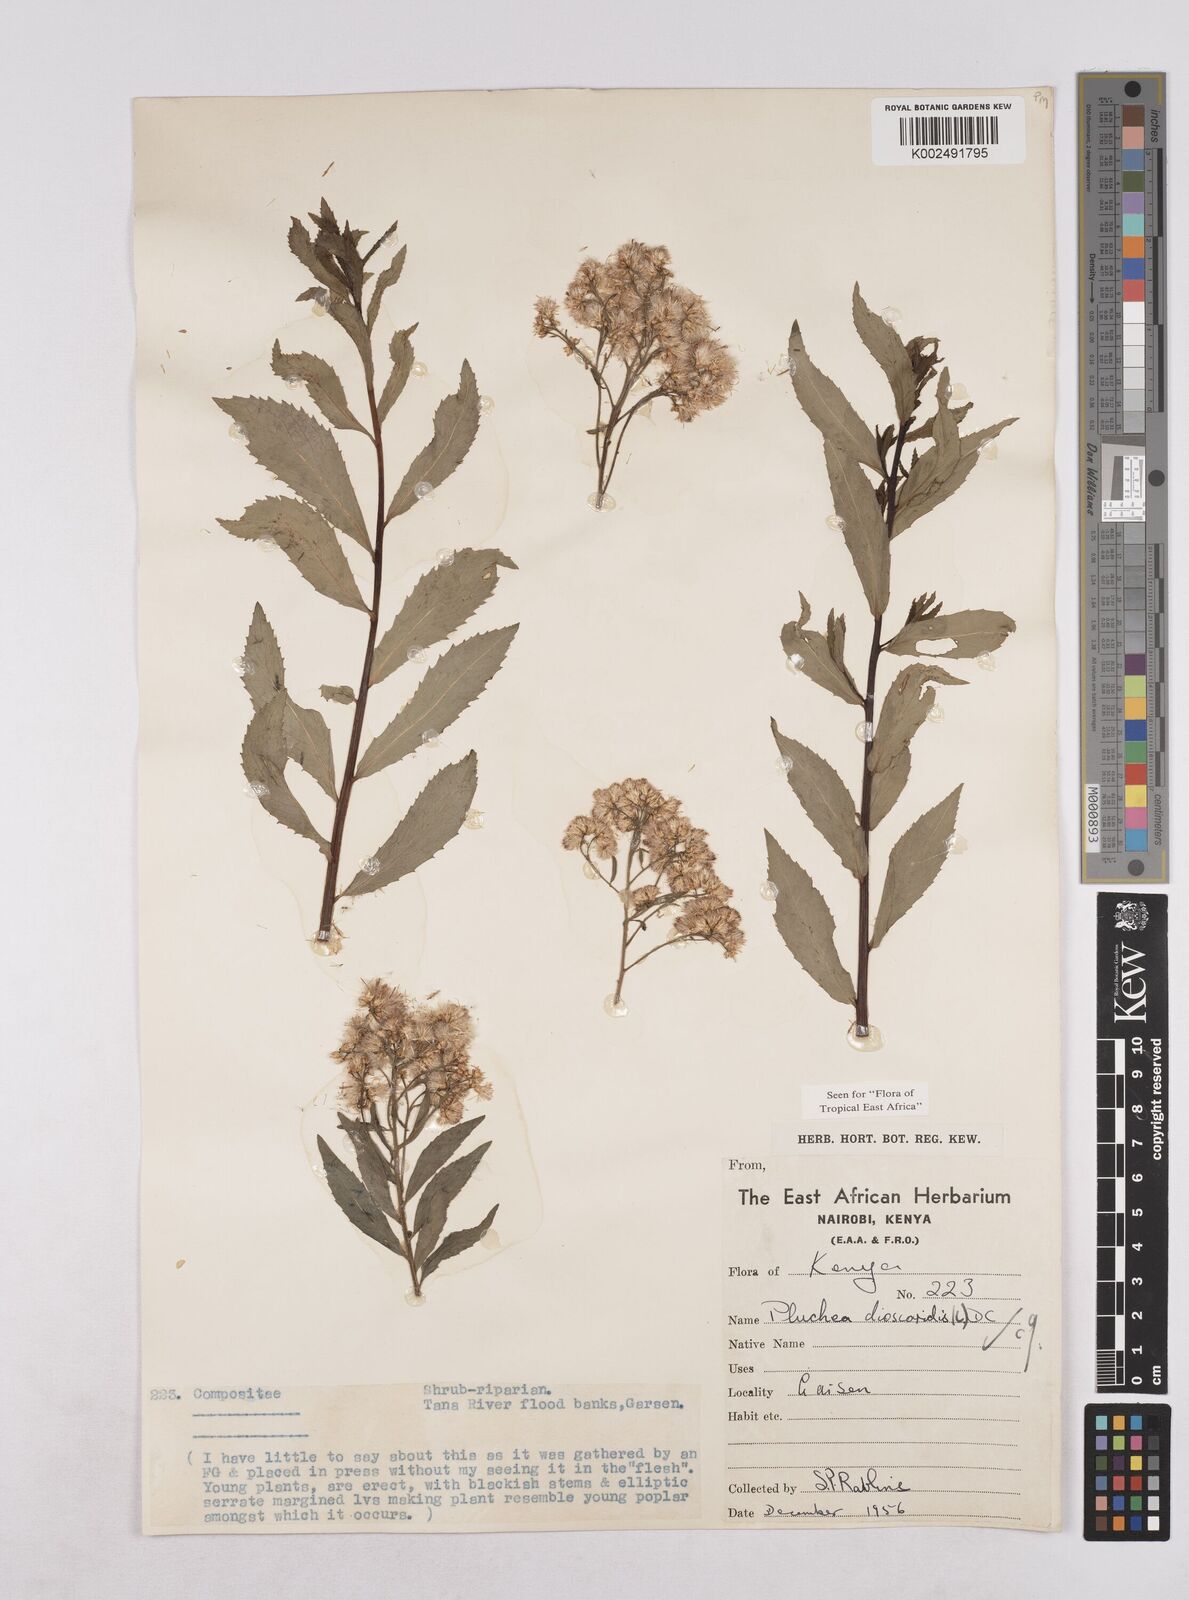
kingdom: Plantae
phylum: Tracheophyta
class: Magnoliopsida
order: Asterales
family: Asteraceae
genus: Pluchea
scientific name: Pluchea dioscoridis
